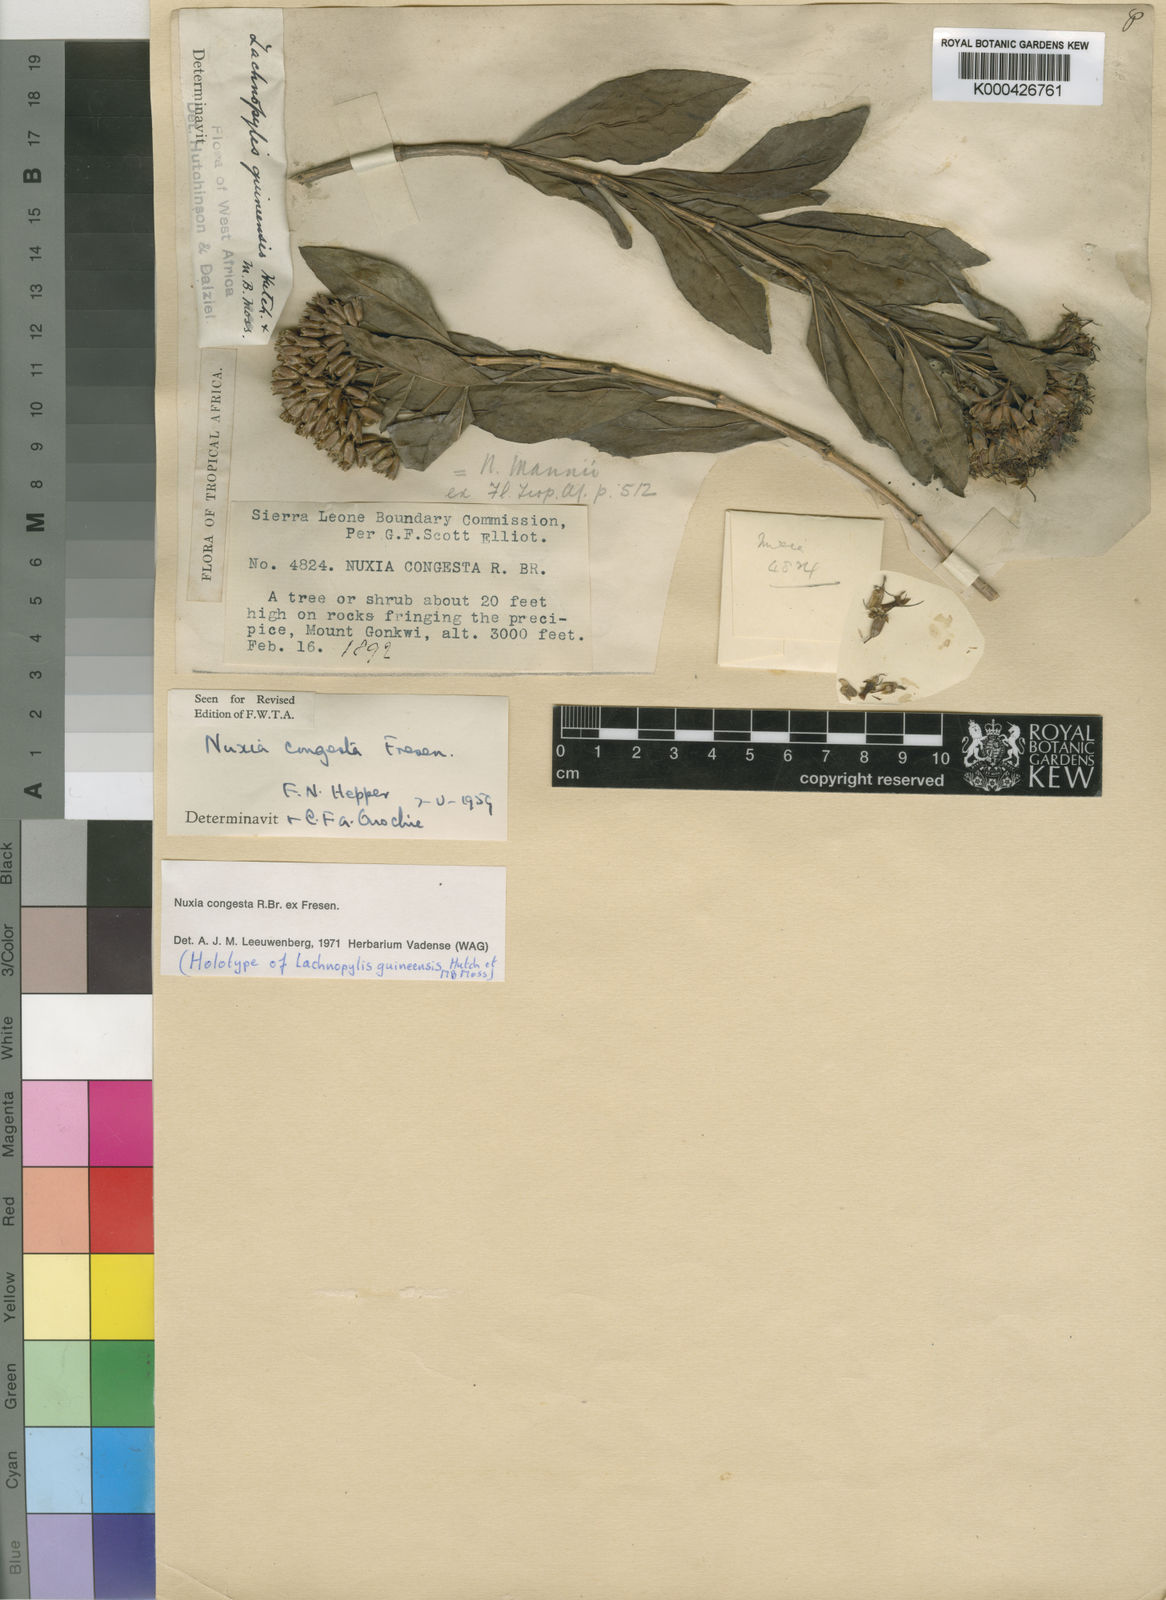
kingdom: Plantae
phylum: Tracheophyta
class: Magnoliopsida
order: Lamiales
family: Stilbaceae
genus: Nuxia
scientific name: Nuxia congesta
